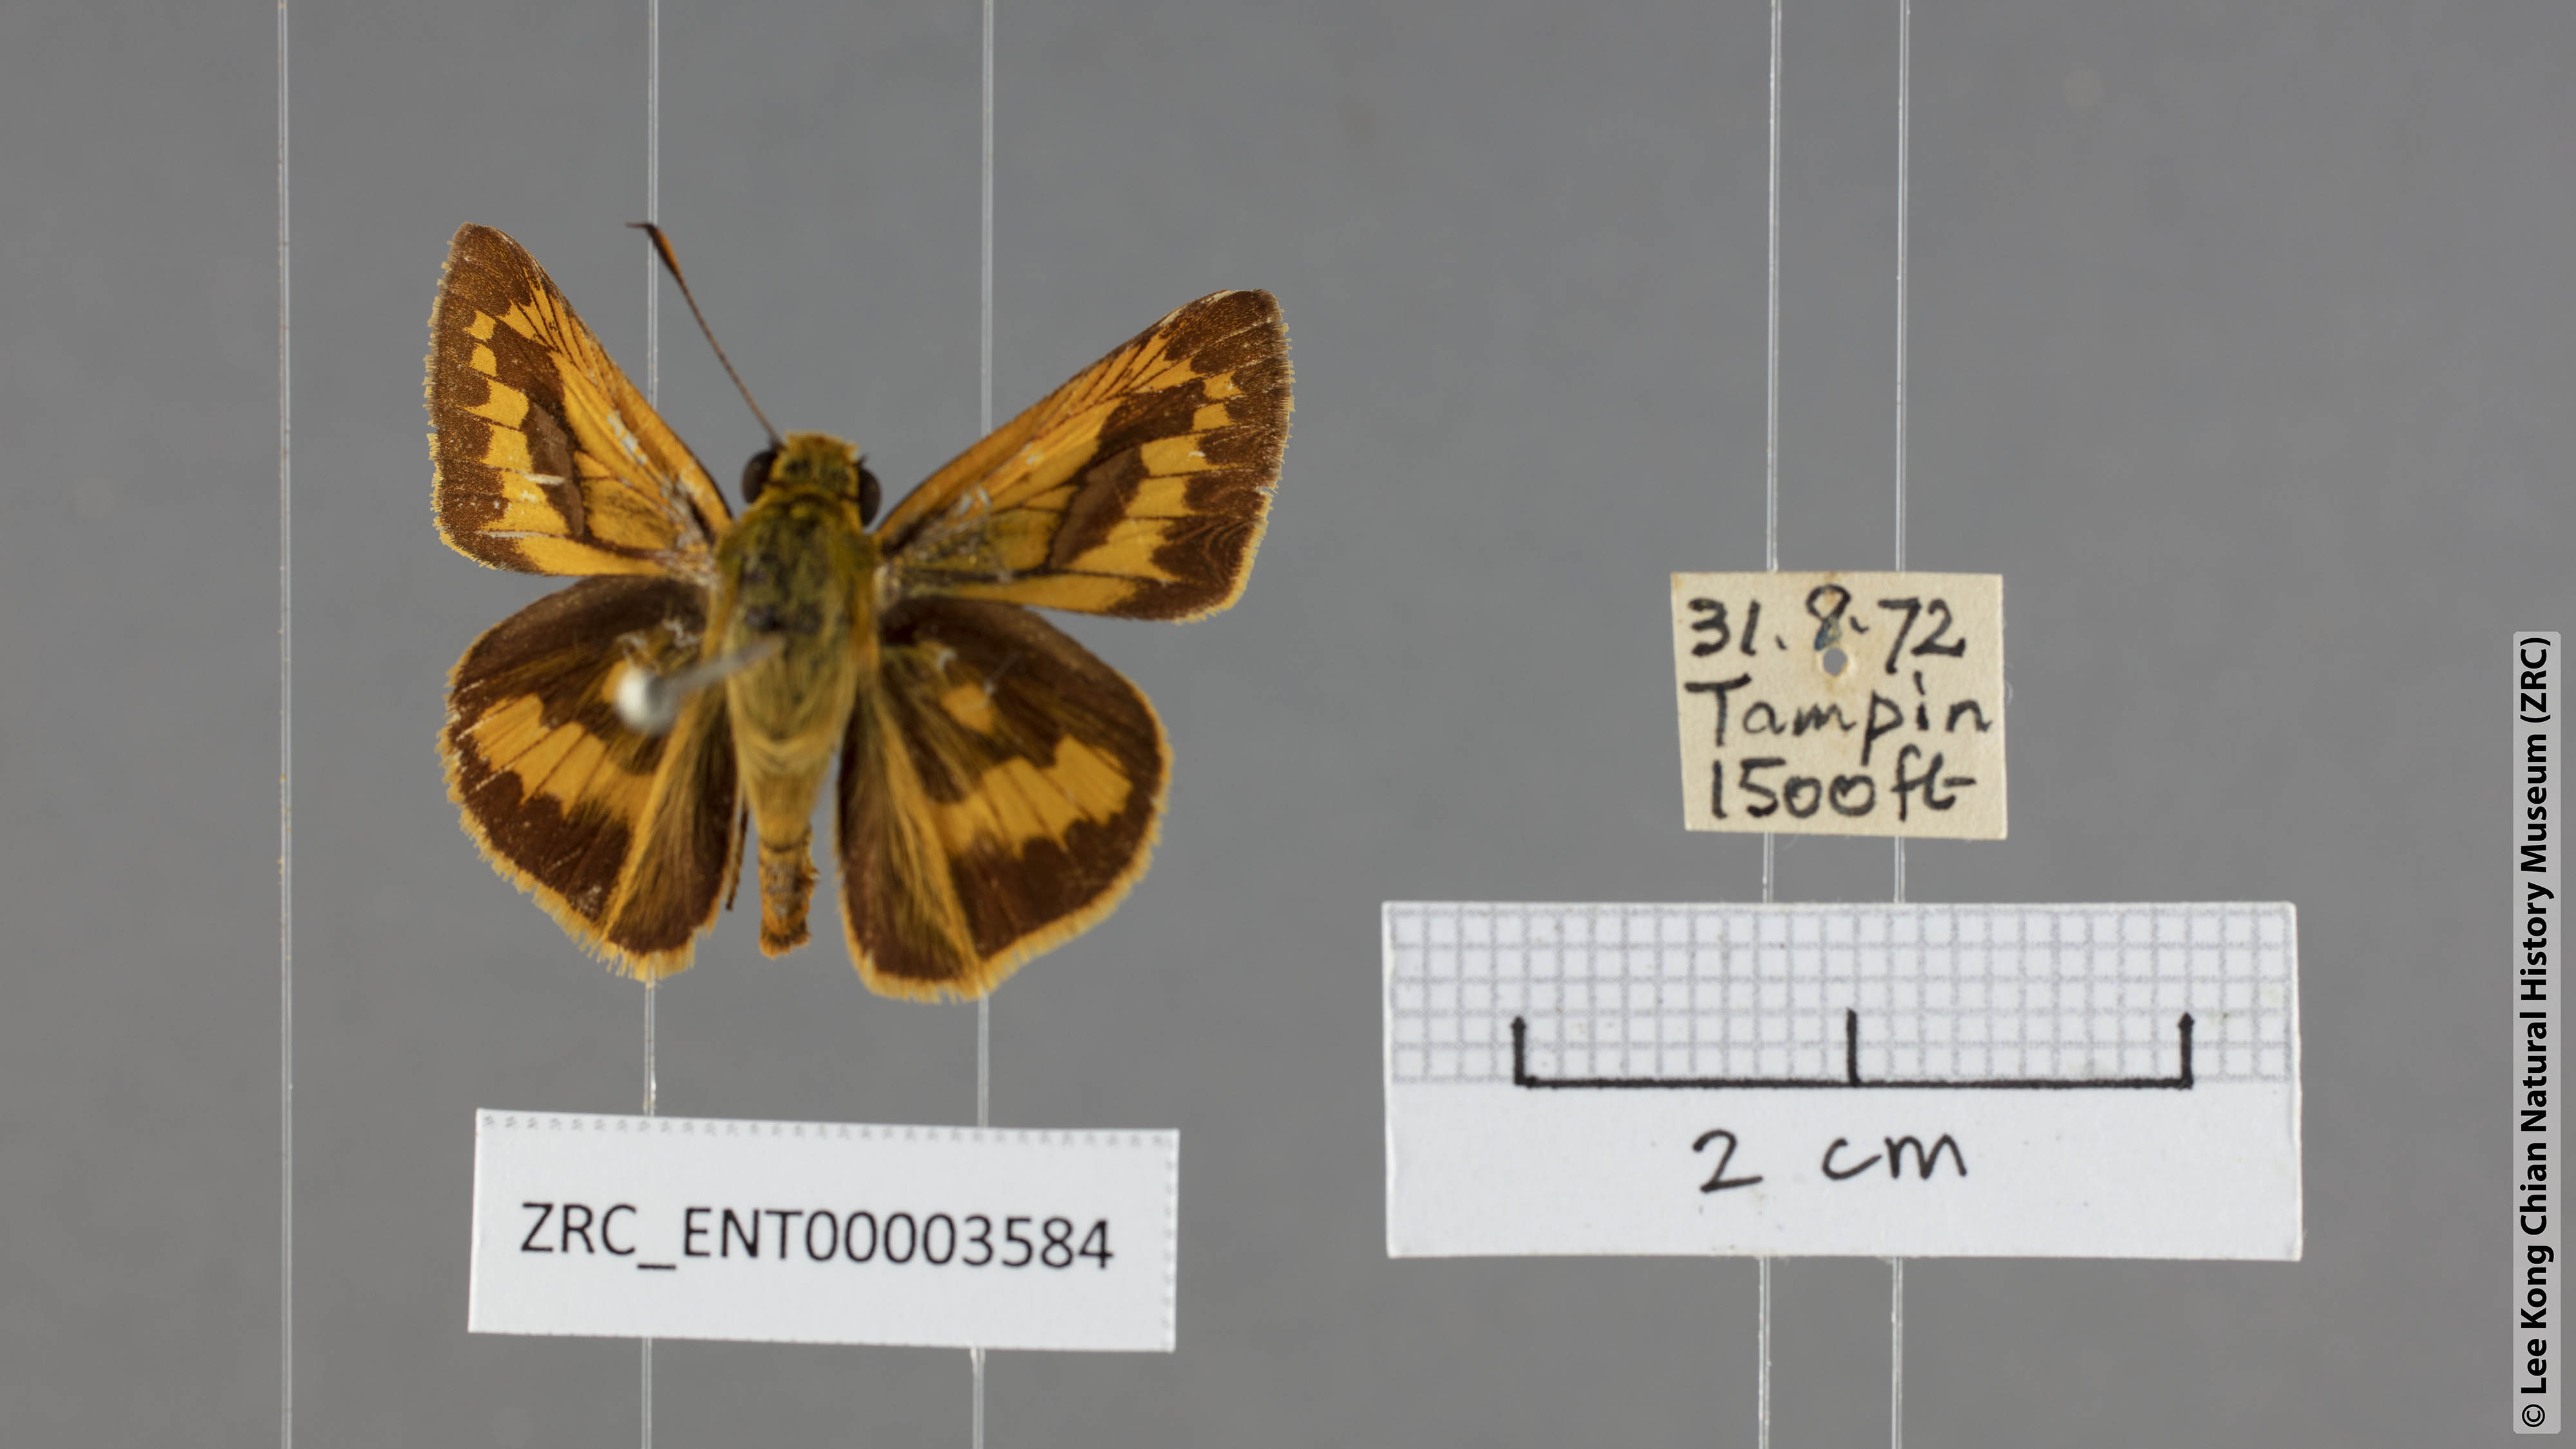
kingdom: Animalia
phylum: Arthropoda
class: Insecta
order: Lepidoptera
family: Hesperiidae
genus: Telicota
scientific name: Telicota besta
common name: Hainan palm dart
